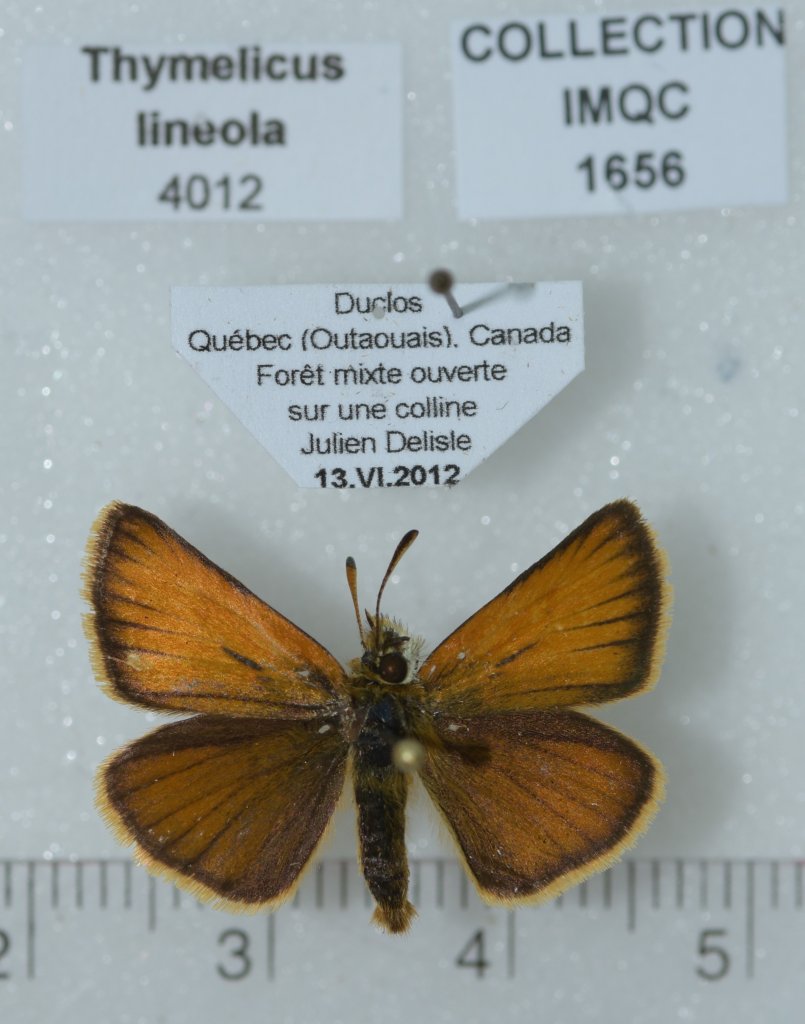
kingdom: Animalia
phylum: Arthropoda
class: Insecta
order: Lepidoptera
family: Hesperiidae
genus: Thymelicus
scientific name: Thymelicus lineola
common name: European Skipper
